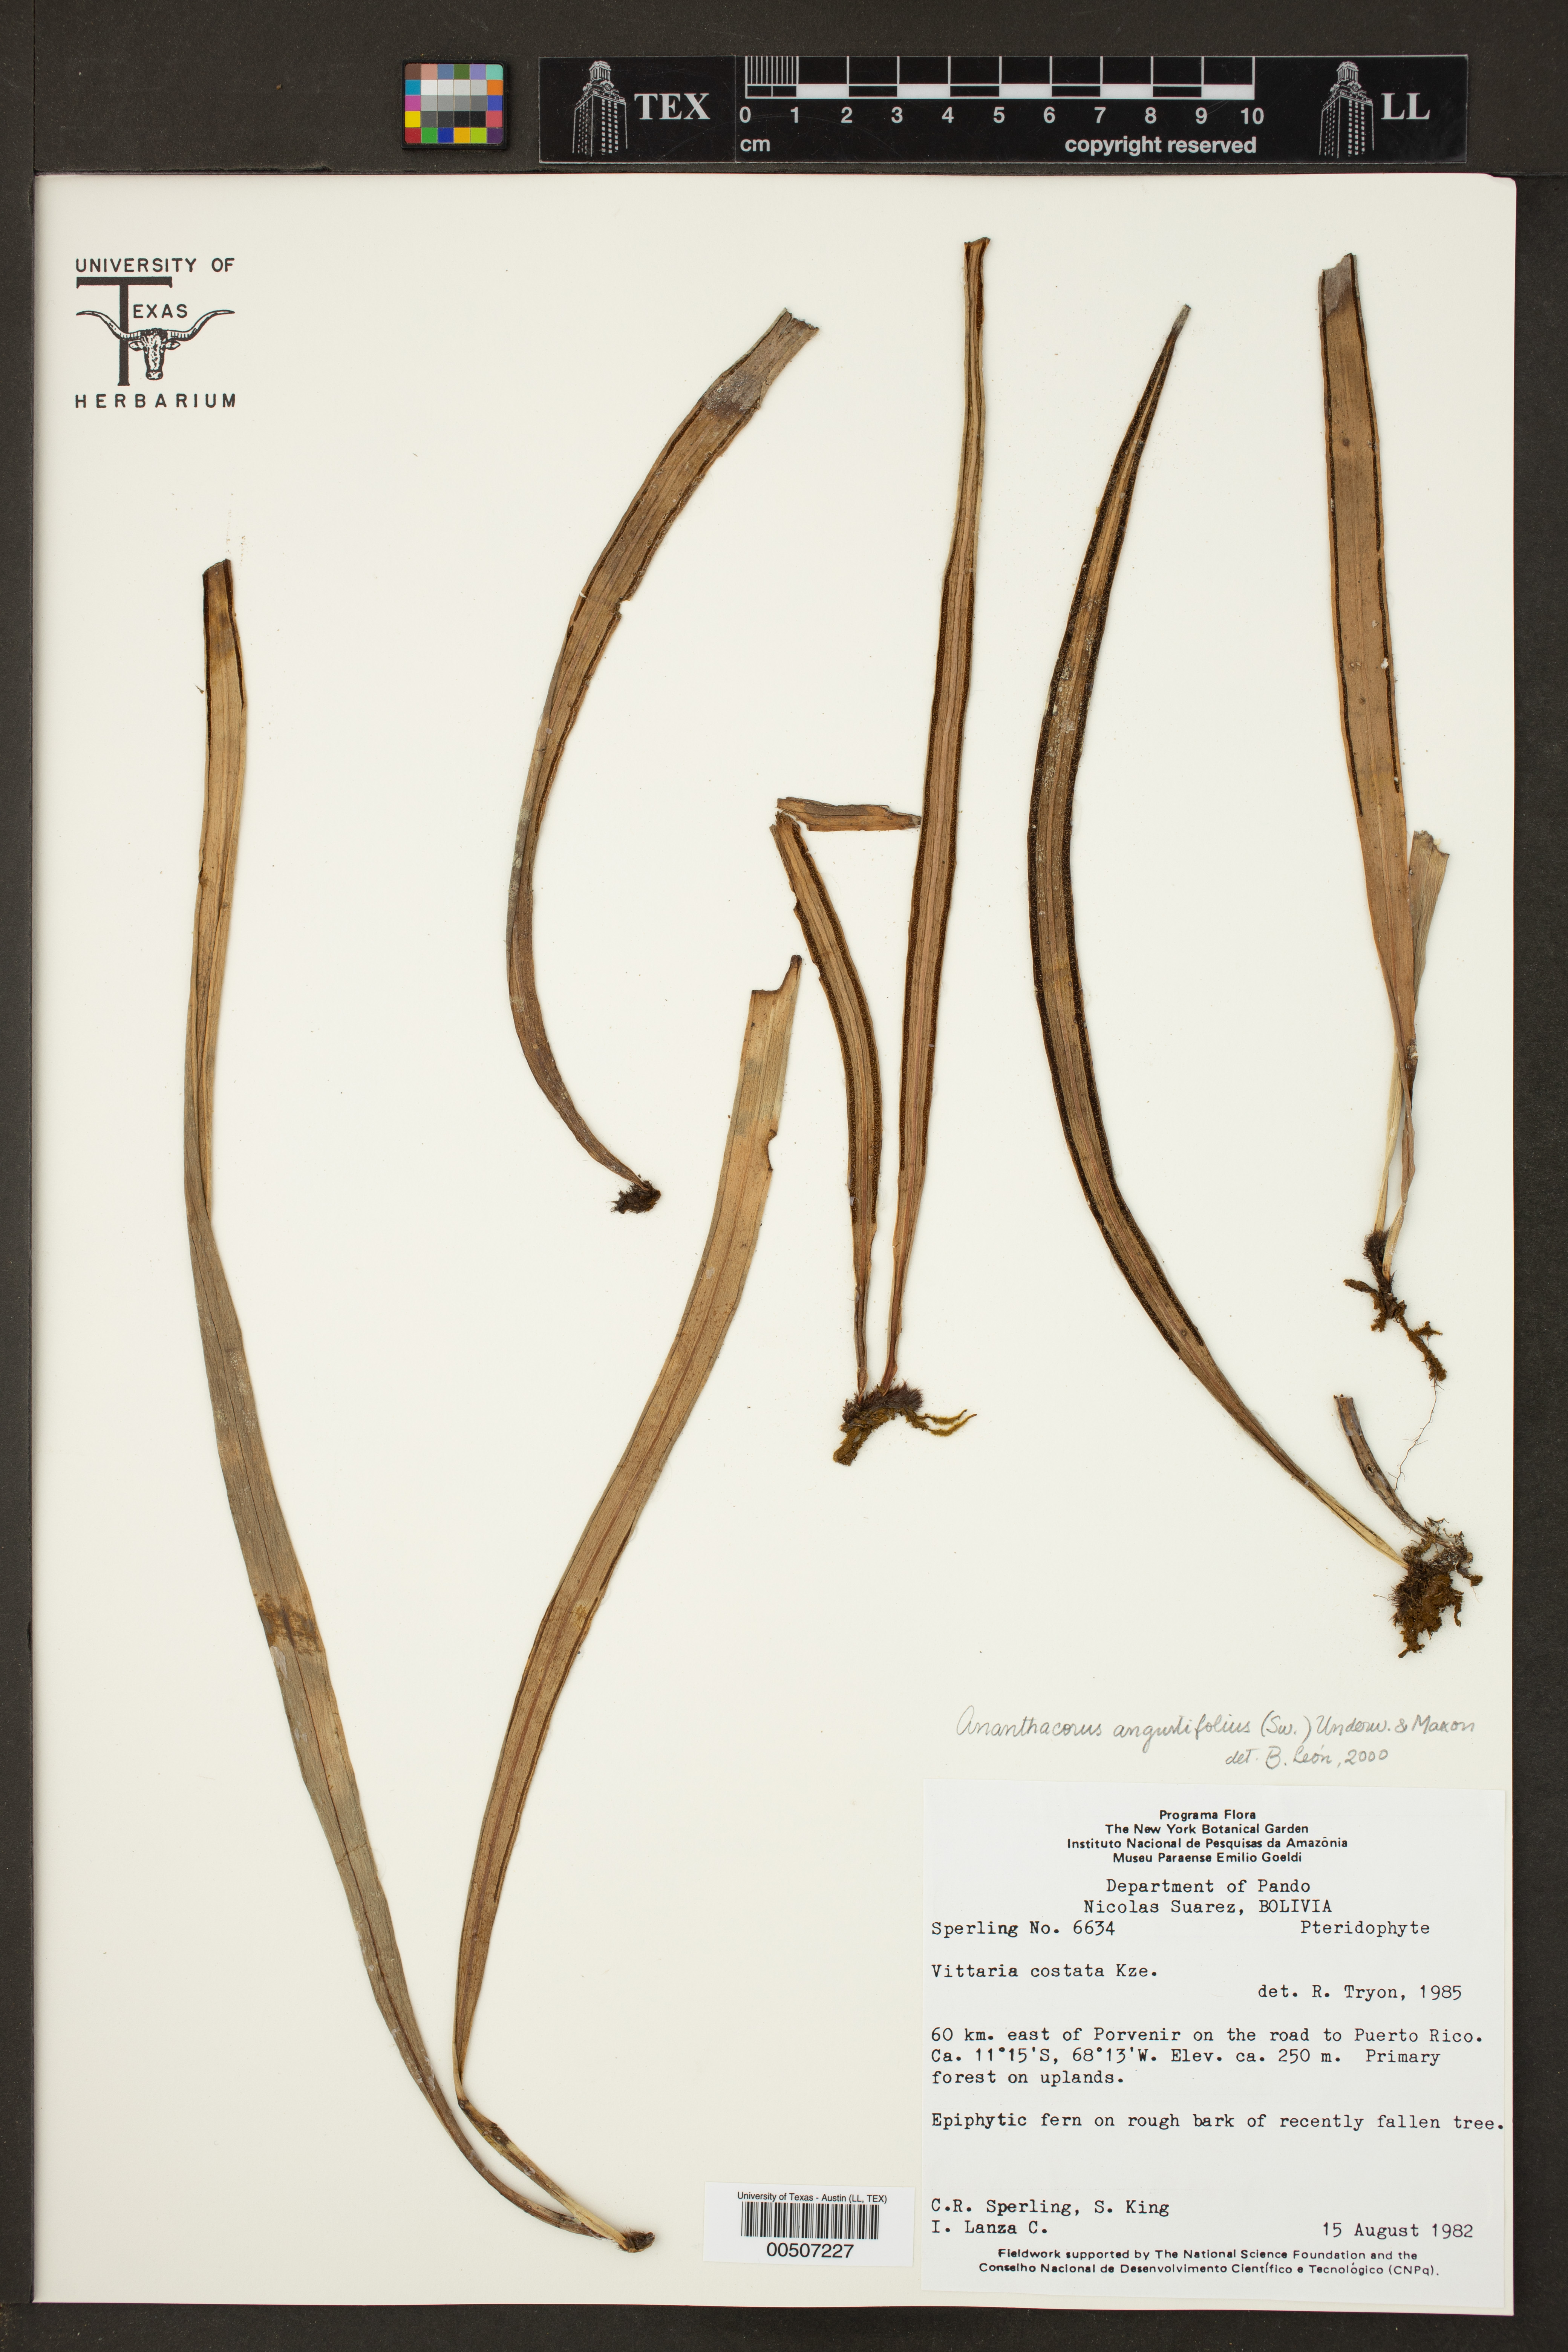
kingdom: Plantae
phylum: Tracheophyta
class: Polypodiopsida
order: Polypodiales
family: Pteridaceae
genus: Ananthacorus
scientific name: Ananthacorus angustifolius
